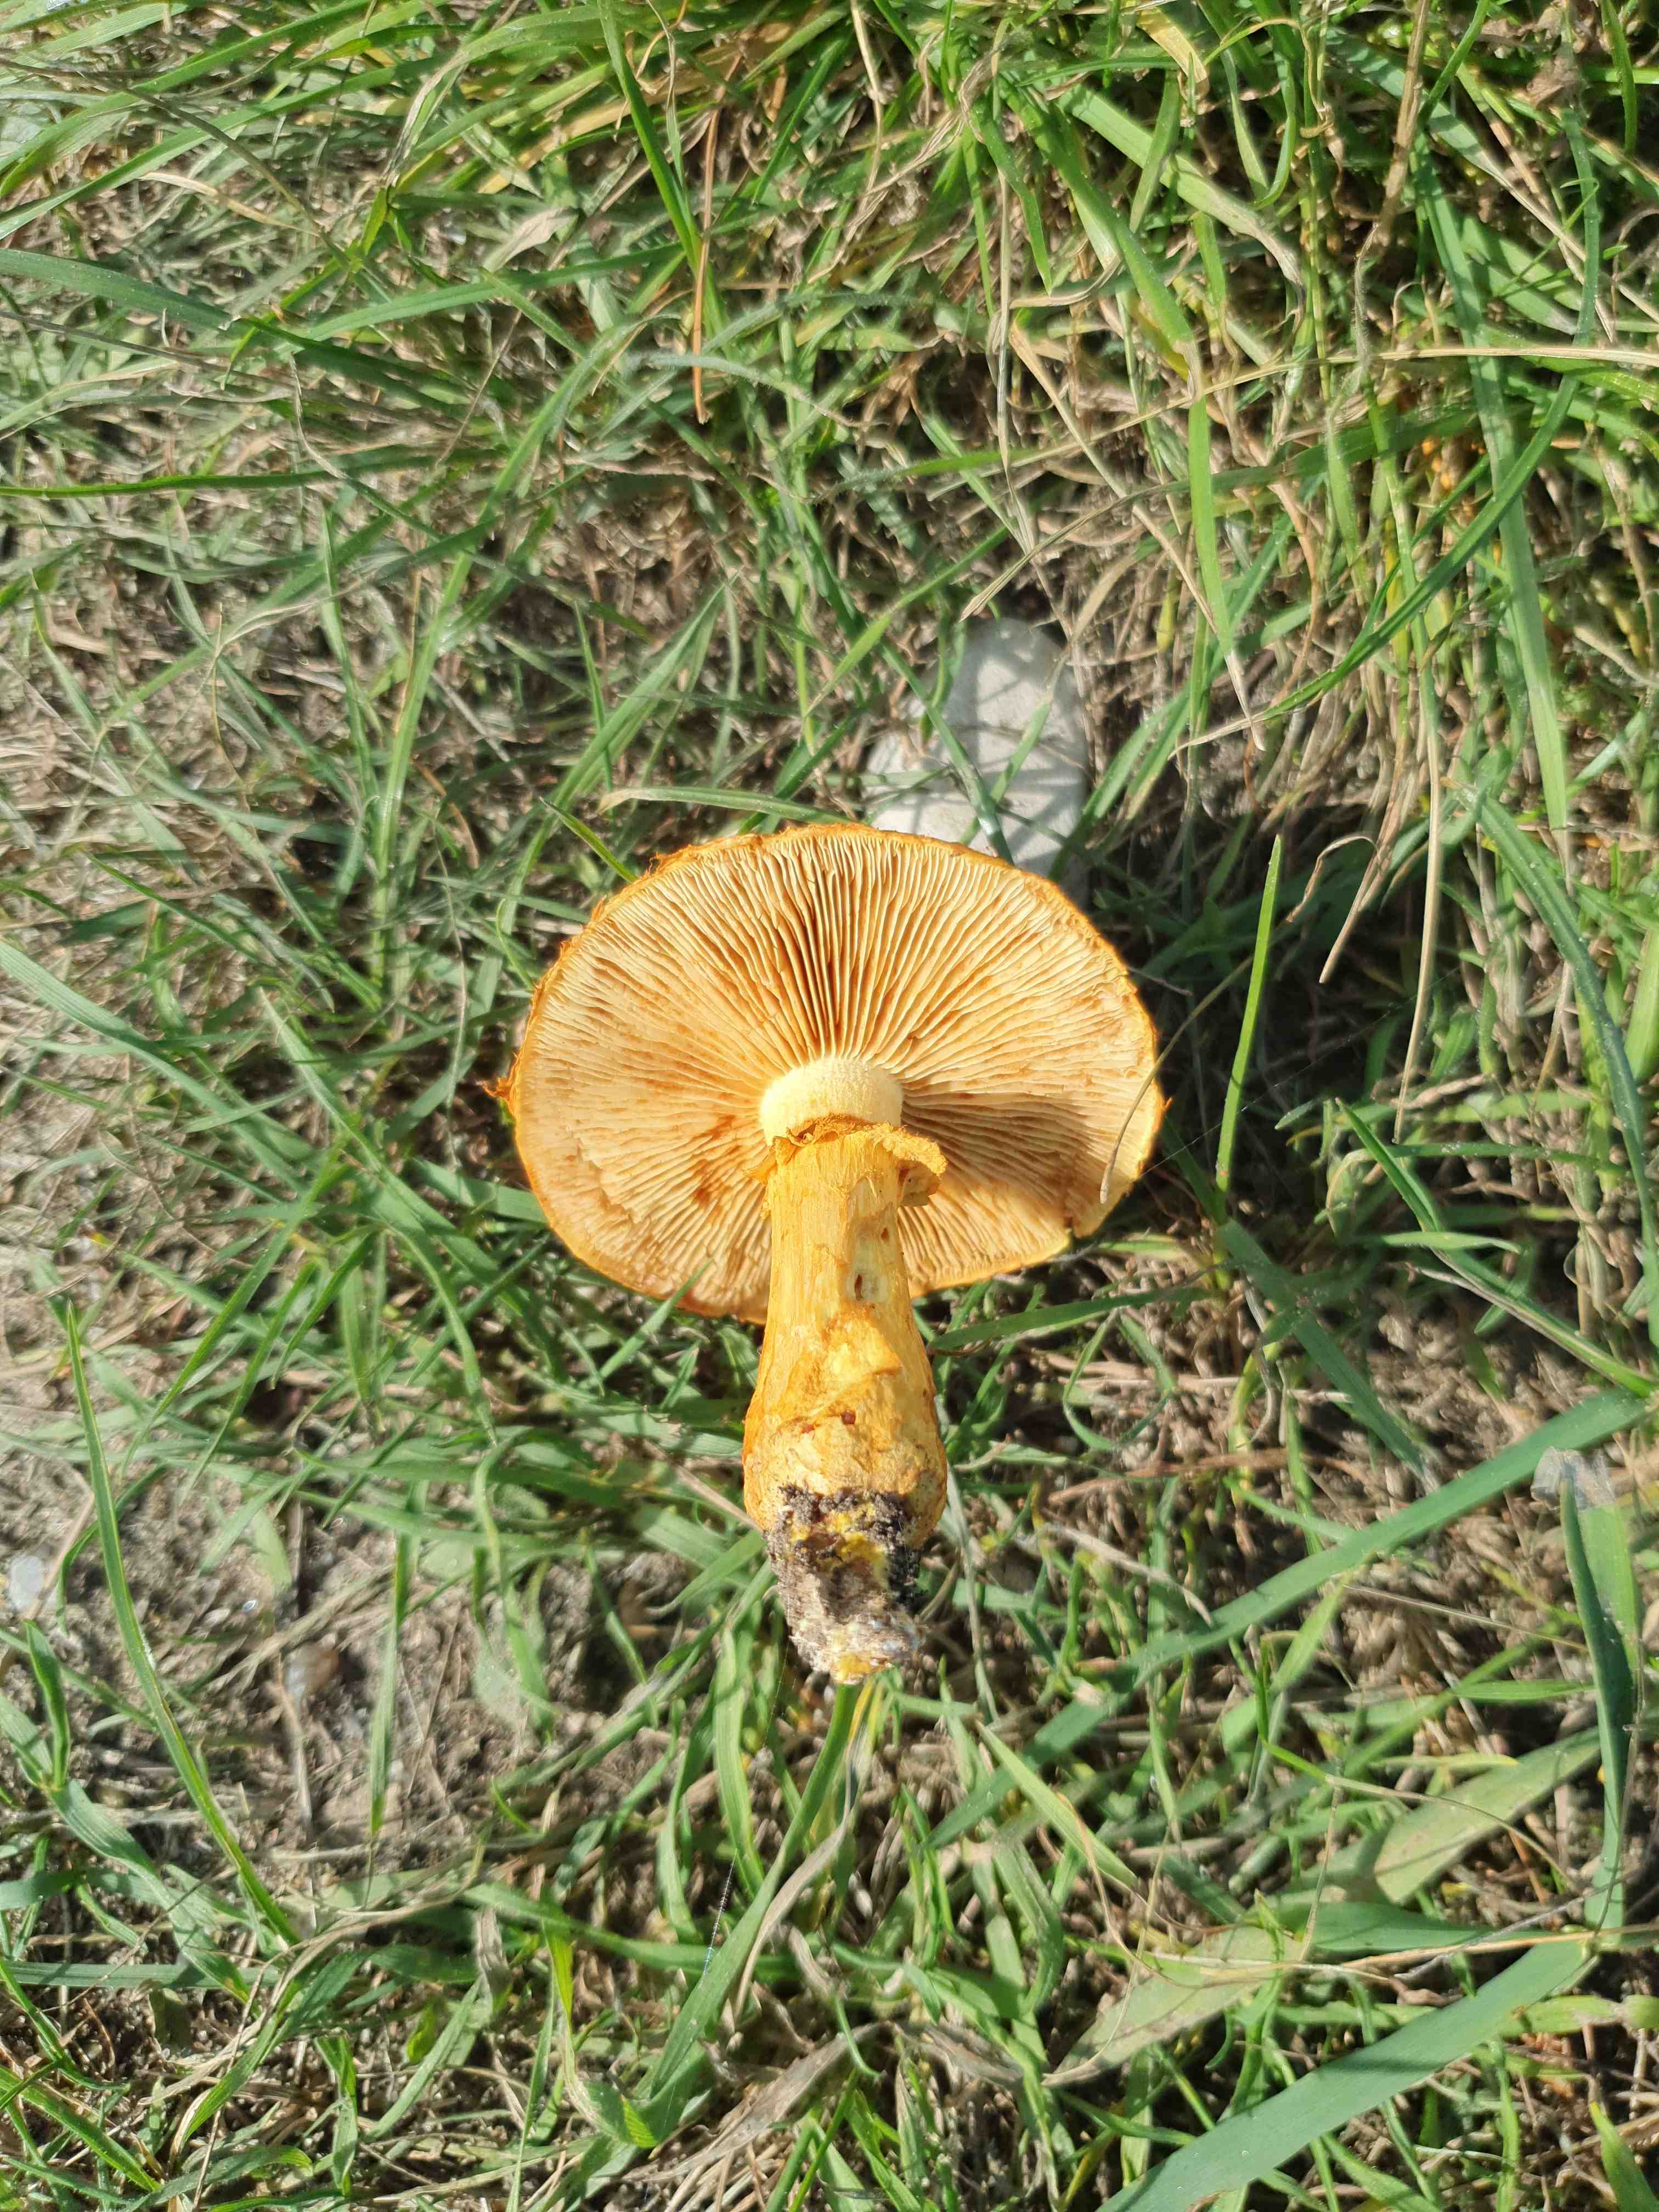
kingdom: Fungi
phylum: Basidiomycota
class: Agaricomycetes
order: Agaricales
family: Hymenogastraceae
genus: Gymnopilus
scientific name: Gymnopilus spectabilis
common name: fibret flammehat
